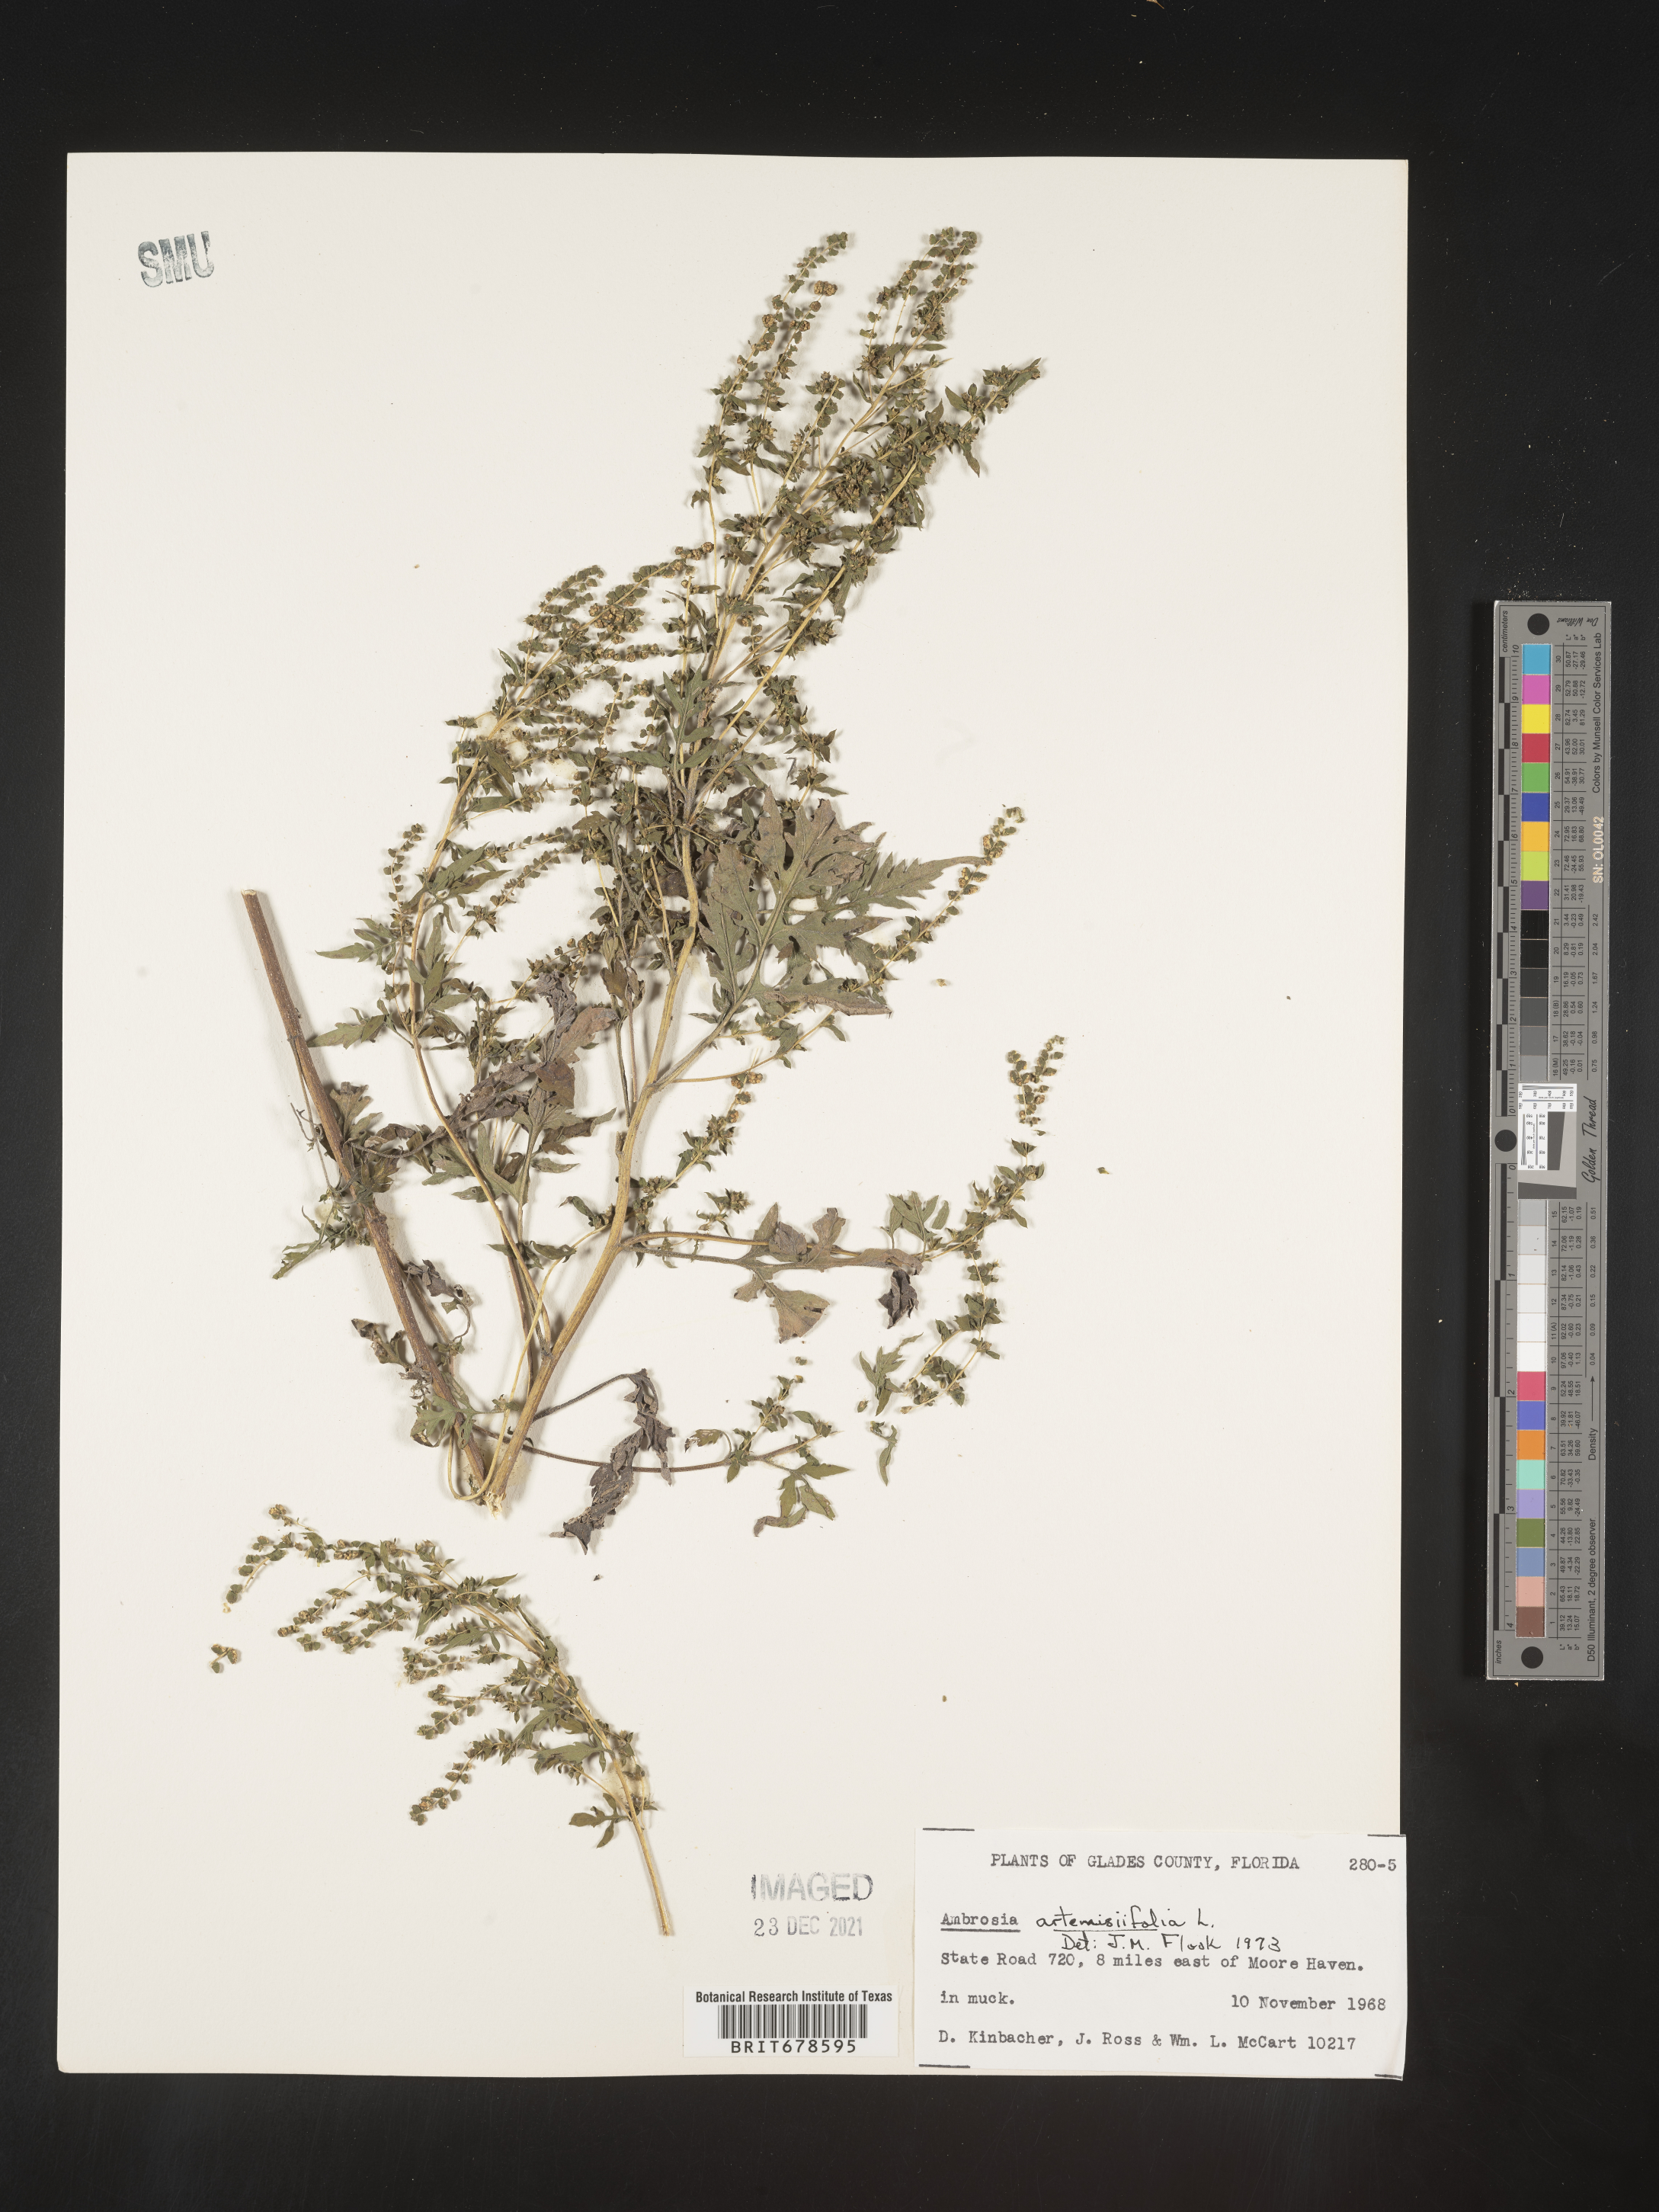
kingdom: Plantae
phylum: Tracheophyta
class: Magnoliopsida
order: Asterales
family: Asteraceae
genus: Ambrosia
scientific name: Ambrosia polystachya
